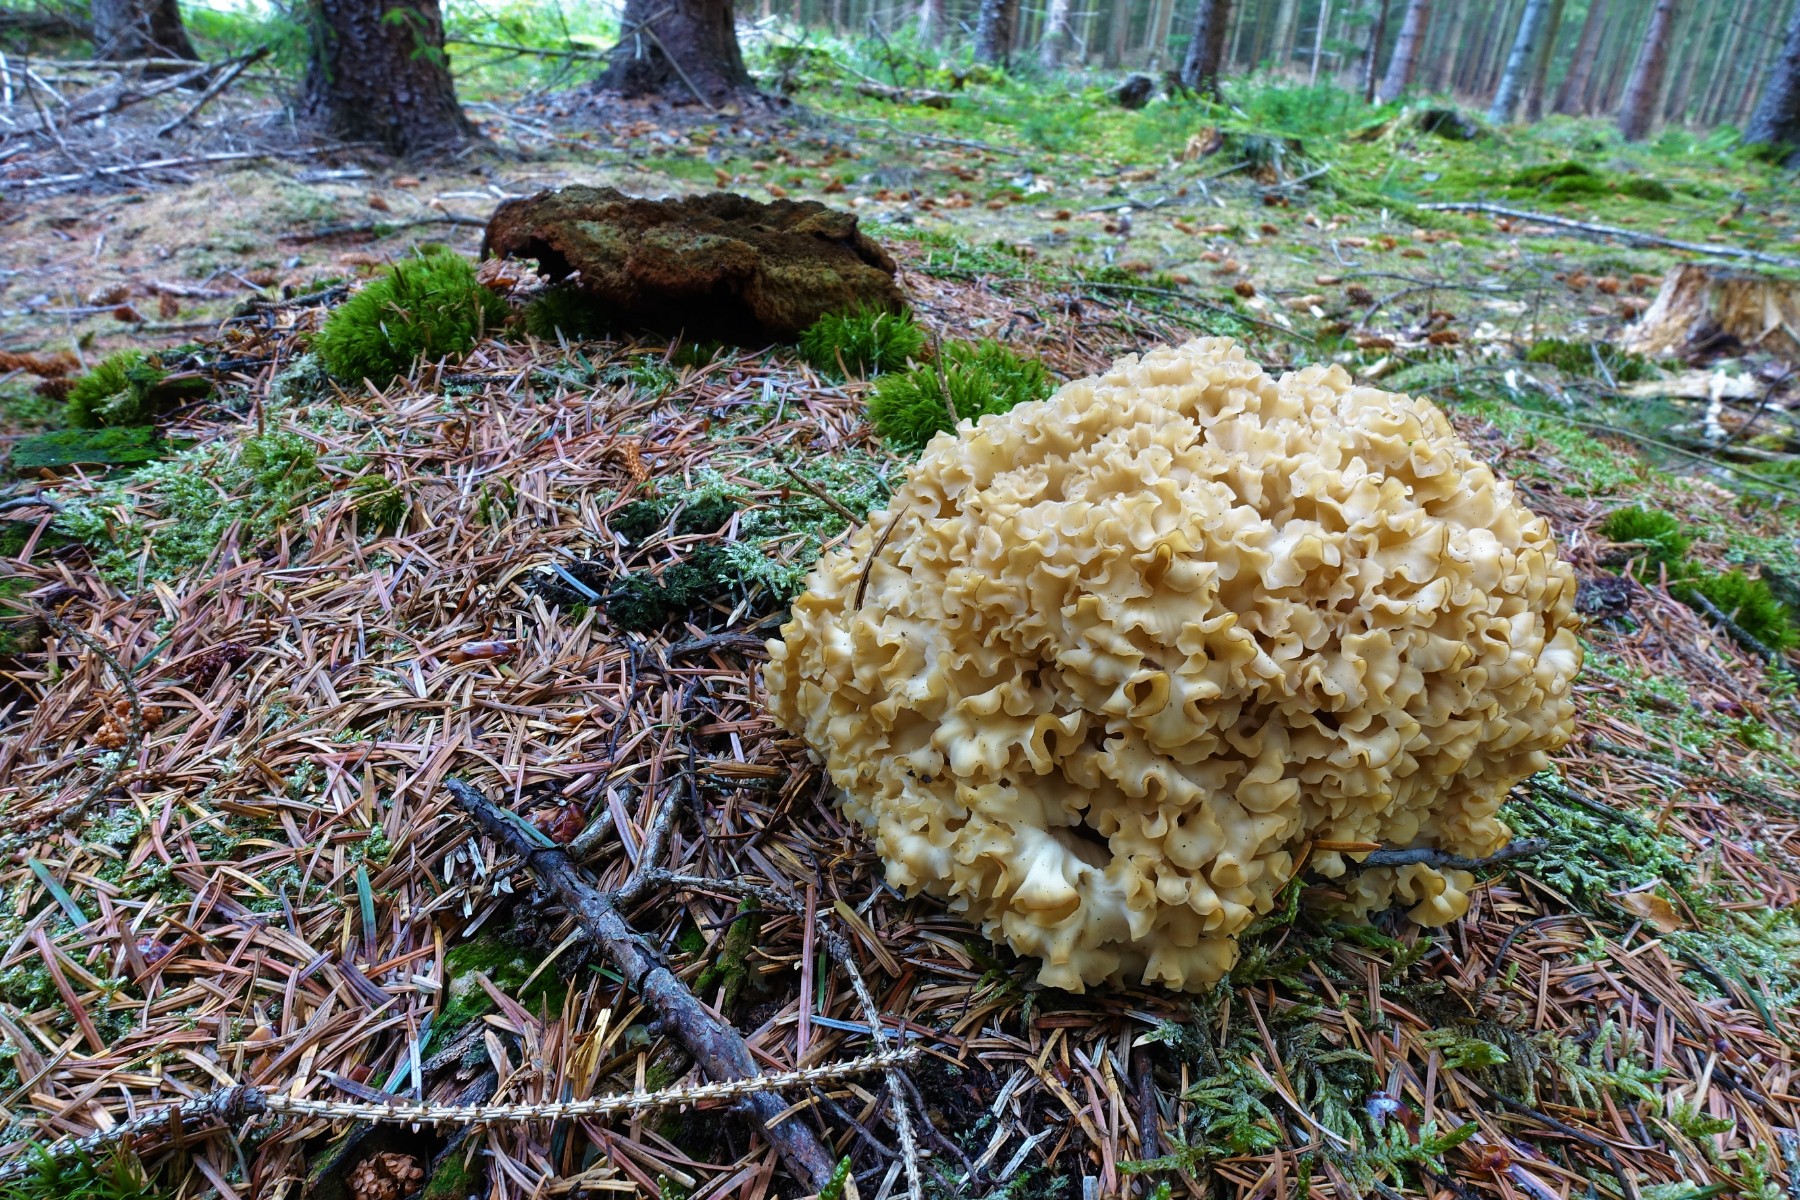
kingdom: Fungi
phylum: Basidiomycota
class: Agaricomycetes
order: Polyporales
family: Sparassidaceae
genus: Sparassis
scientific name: Sparassis crispa
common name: kruset blomkålssvamp
